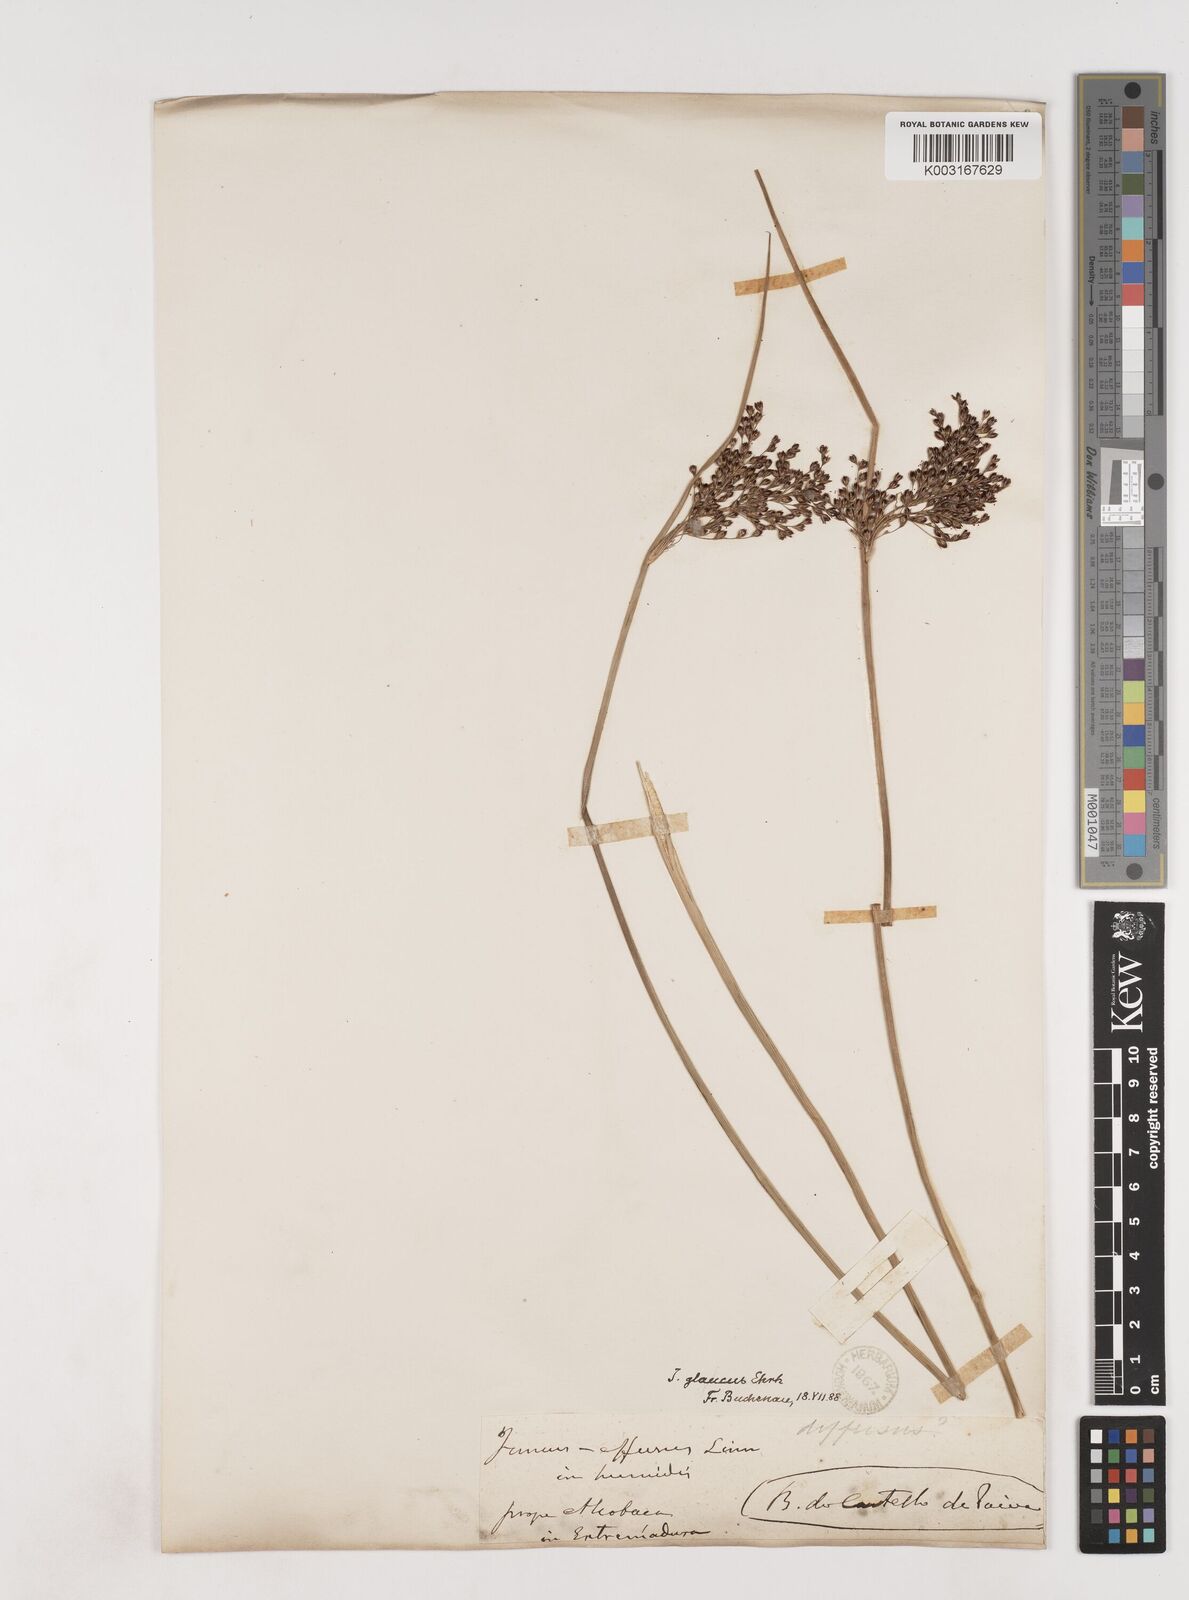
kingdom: Plantae
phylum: Tracheophyta
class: Liliopsida
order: Poales
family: Juncaceae
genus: Juncus
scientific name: Juncus inflexus
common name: Hard rush
